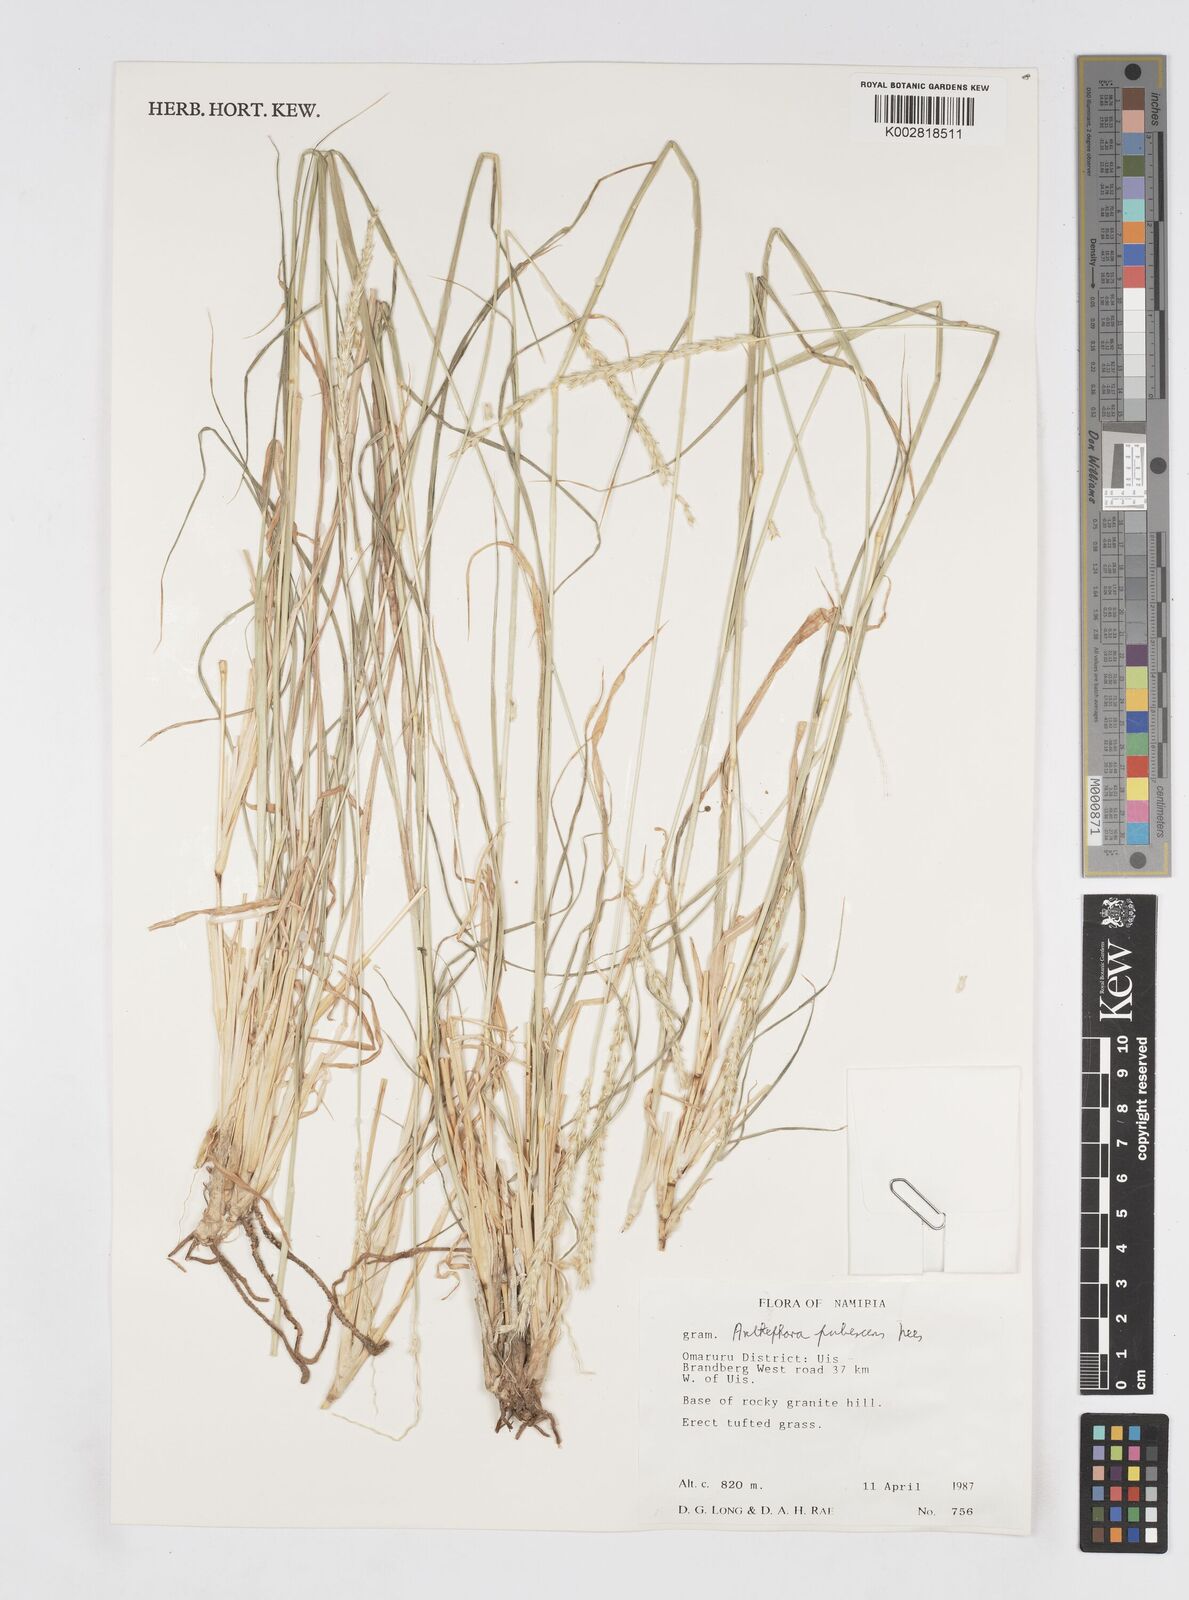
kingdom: Plantae
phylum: Tracheophyta
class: Liliopsida
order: Poales
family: Poaceae
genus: Anthephora
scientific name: Anthephora pubescens
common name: Wool grass
